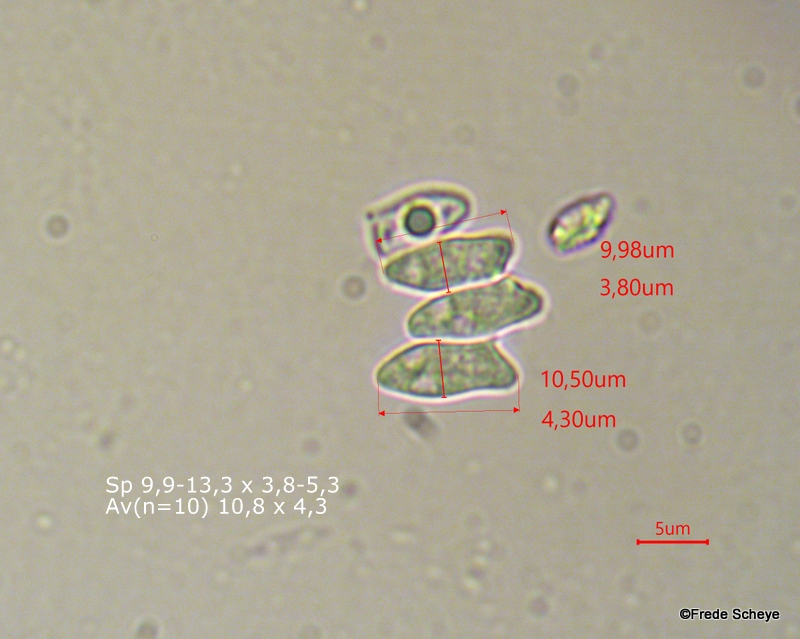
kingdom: Fungi
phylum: Basidiomycota
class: Agaricomycetes
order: Agaricales
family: Agaricaceae
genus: Leucocoprinus
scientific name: Leucocoprinus straminellus
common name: rustbrun parasolhat
